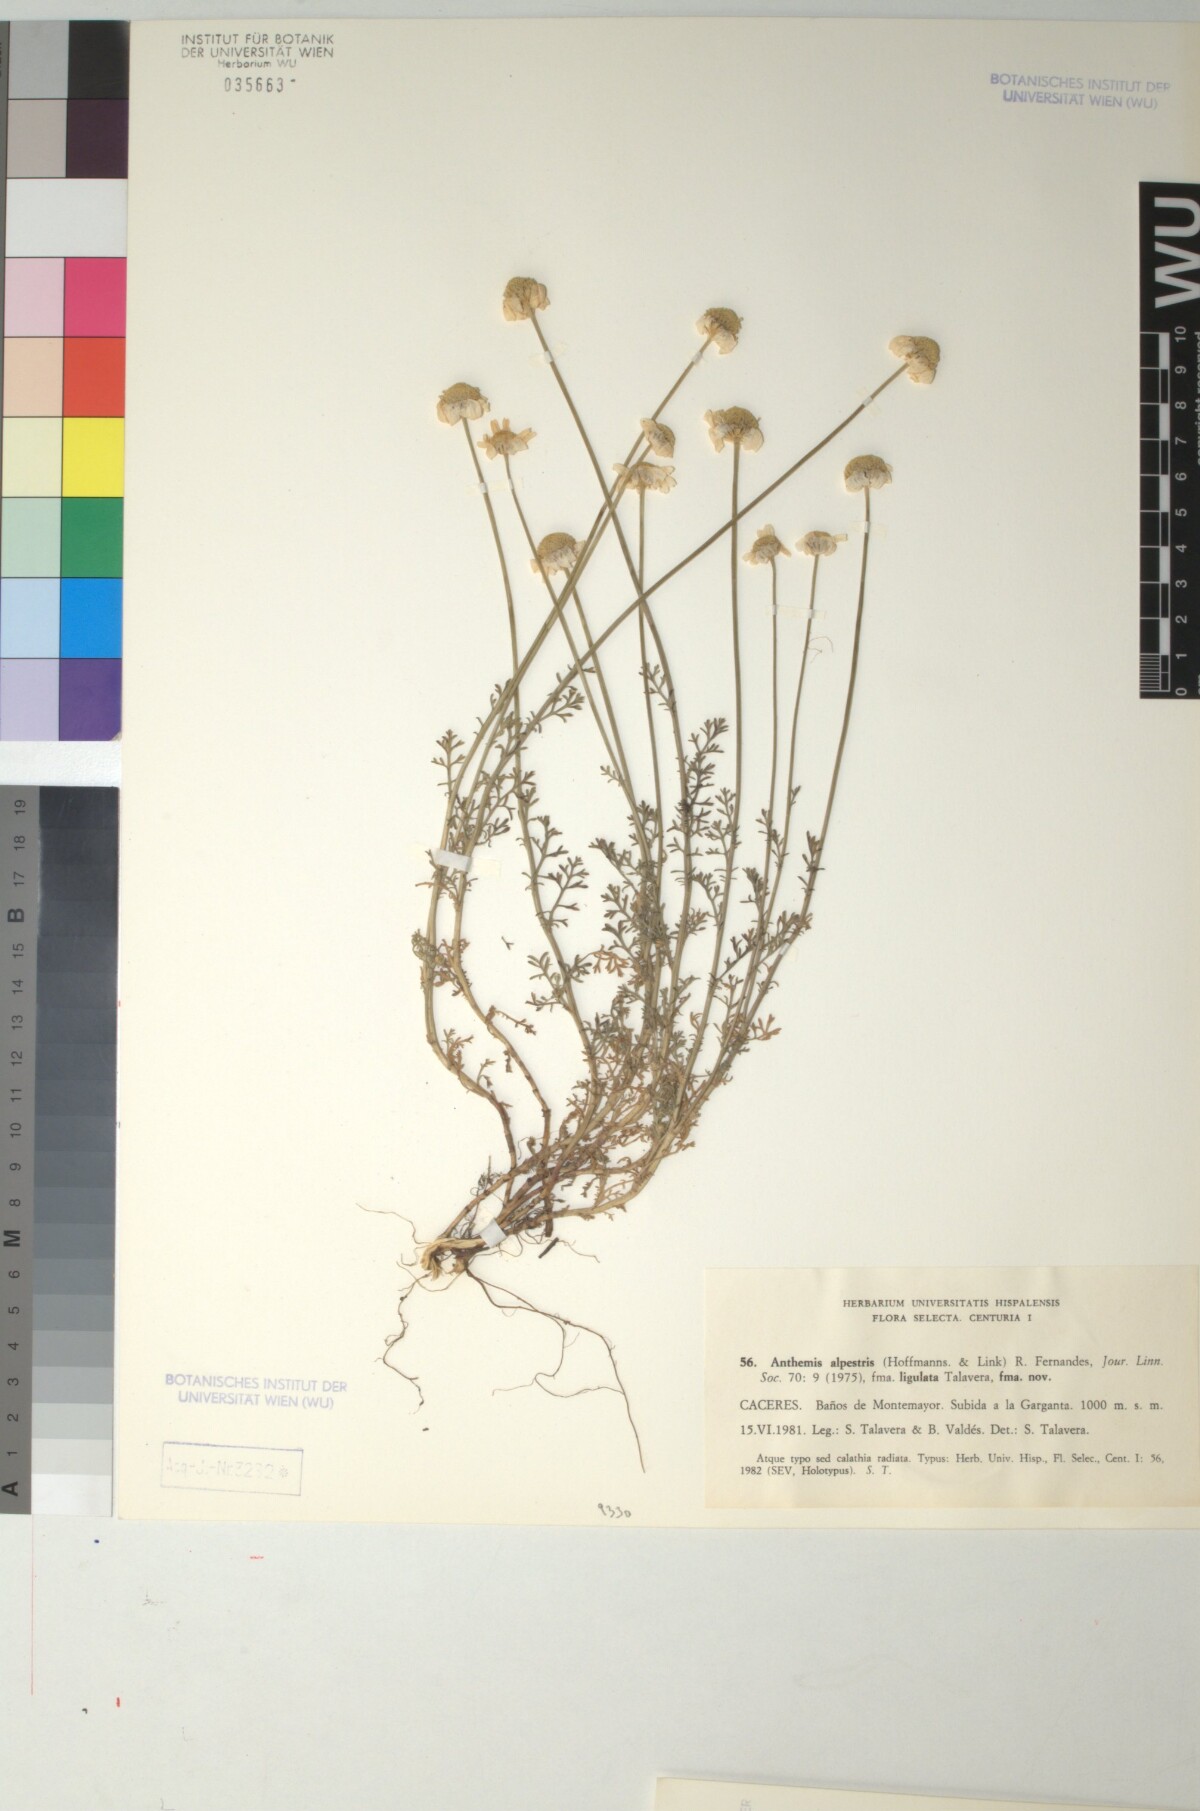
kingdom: Plantae
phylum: Tracheophyta
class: Magnoliopsida
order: Asterales
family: Asteraceae
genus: Anthemis
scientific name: Anthemis alpestris
